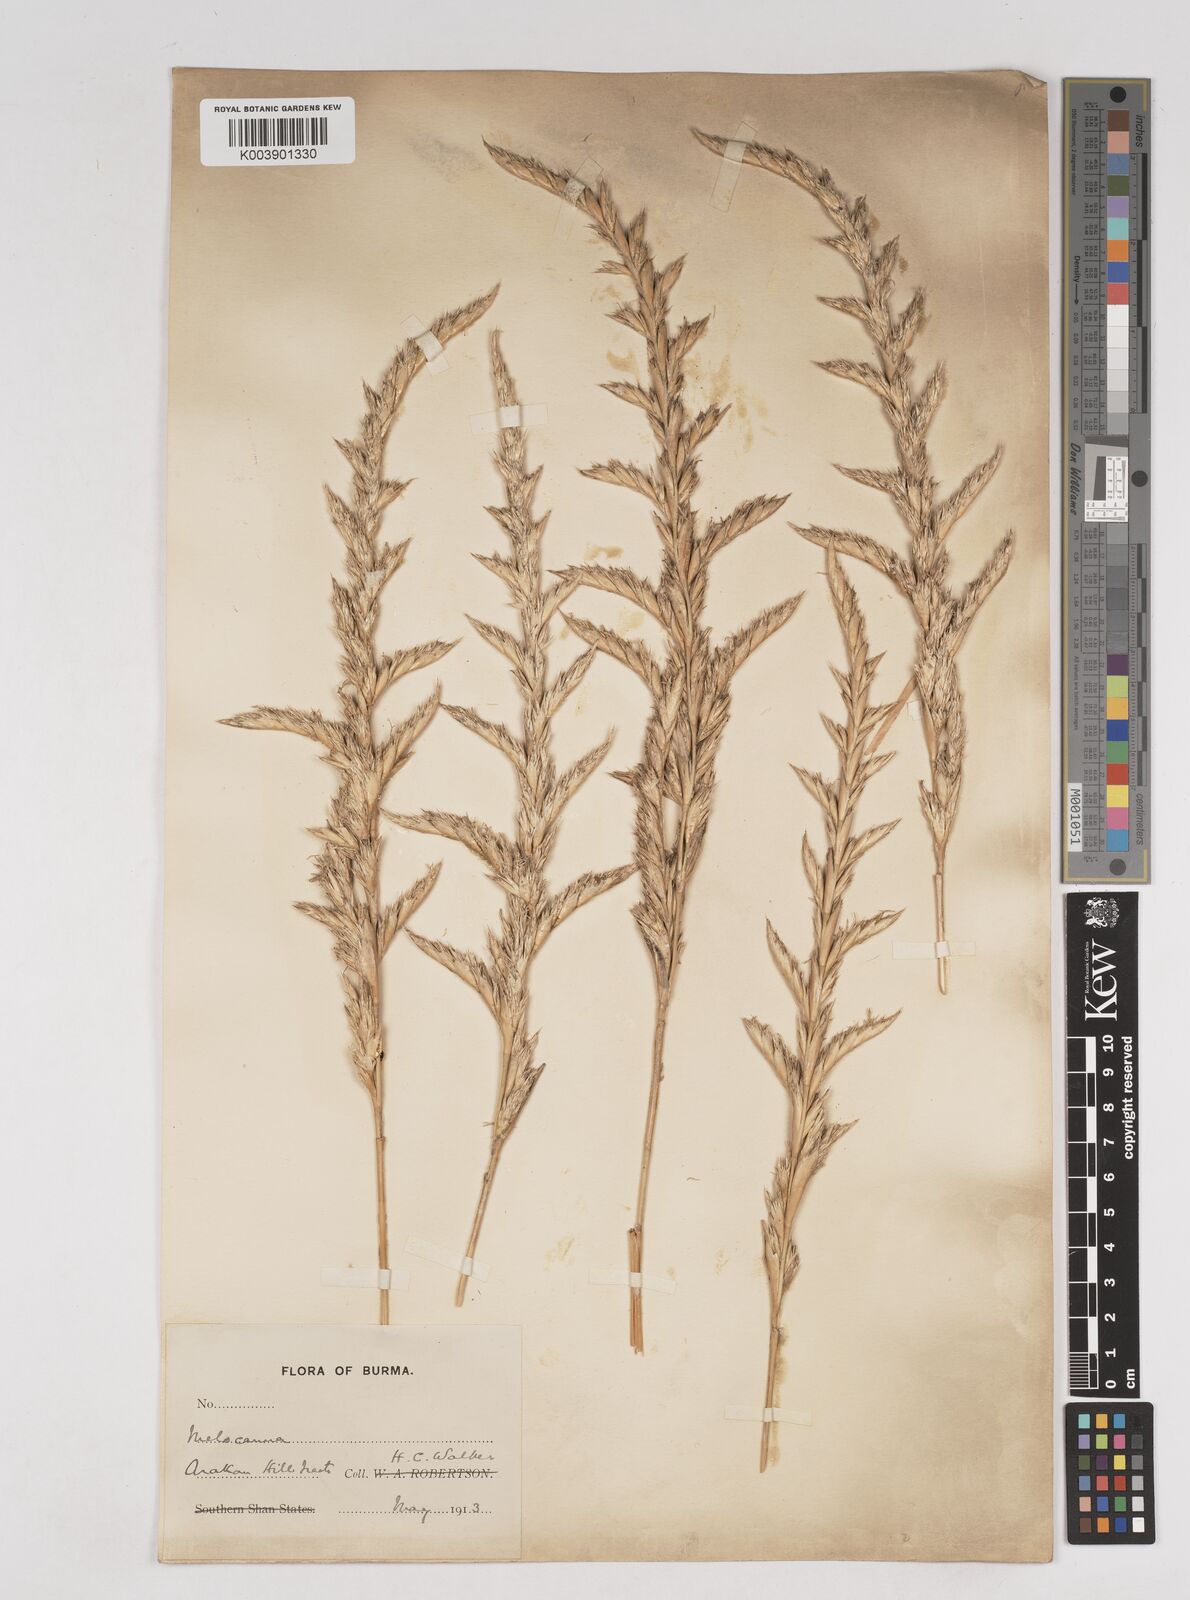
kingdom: Plantae
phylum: Tracheophyta
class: Liliopsida
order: Poales
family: Poaceae
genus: Melocanna
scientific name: Melocanna
